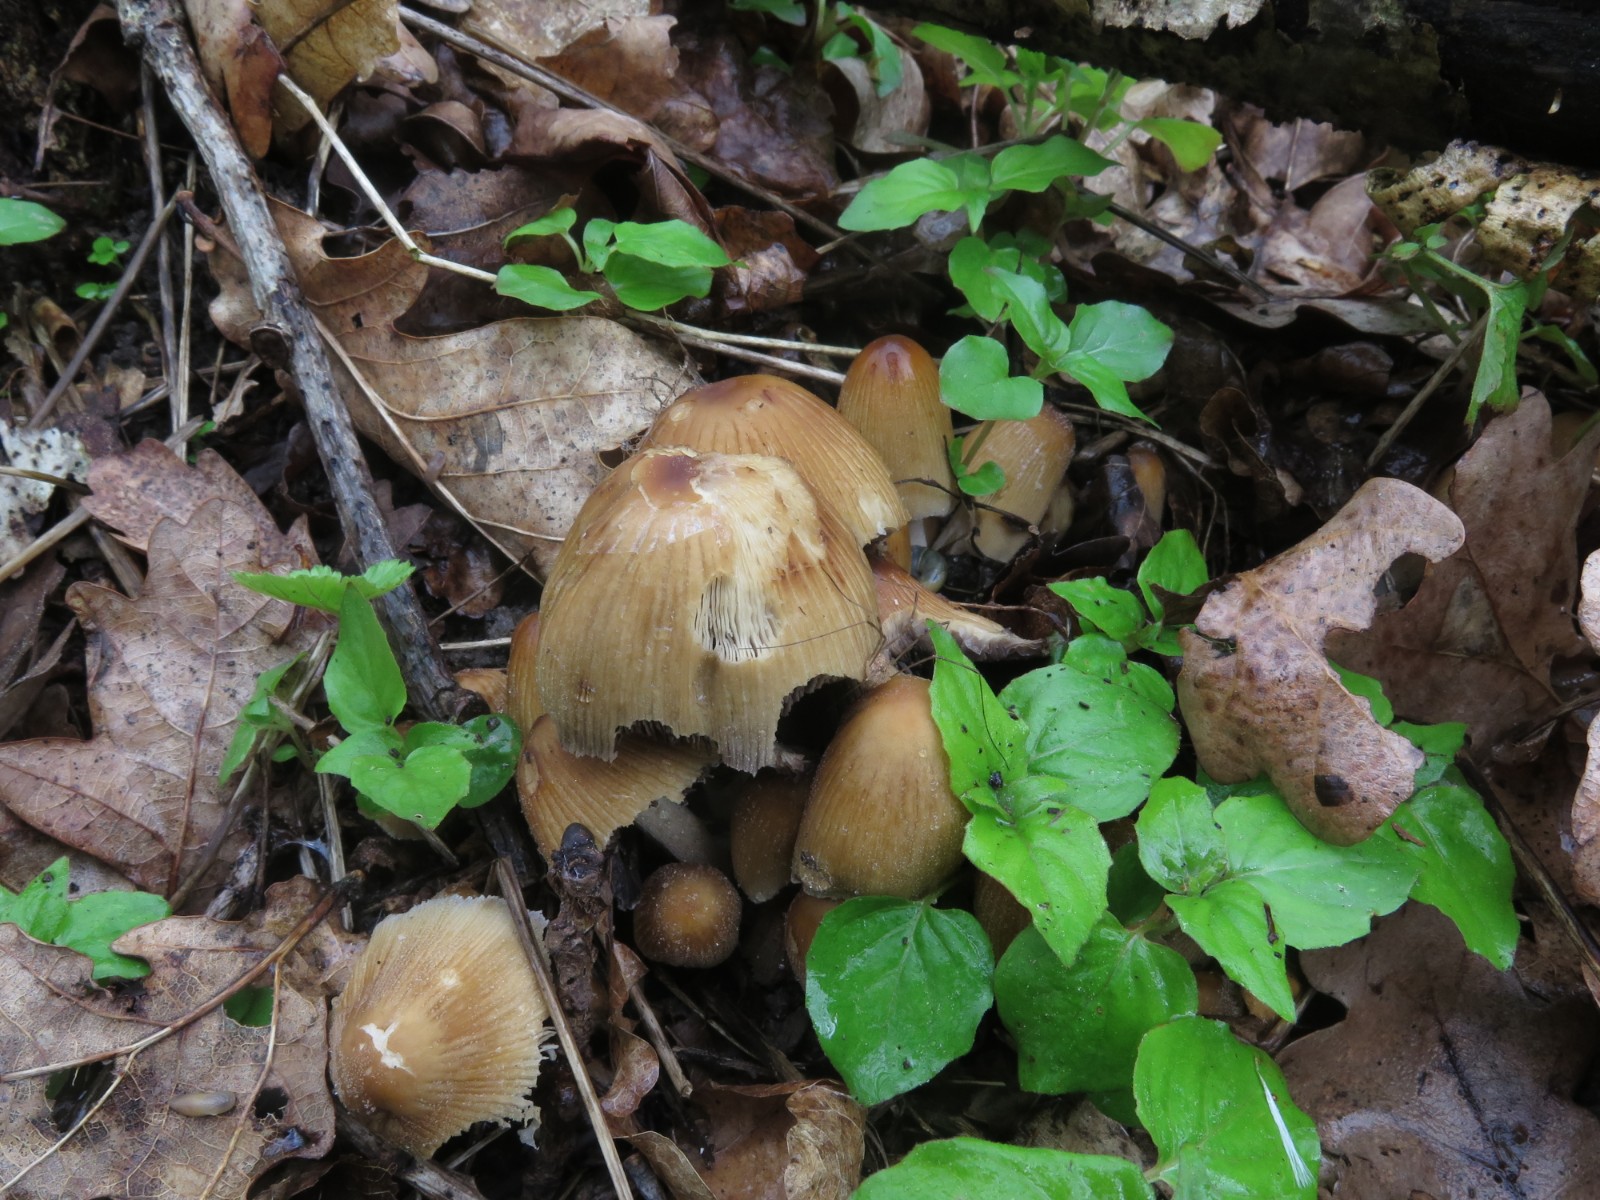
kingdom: Fungi
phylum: Basidiomycota
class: Agaricomycetes
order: Agaricales
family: Psathyrellaceae
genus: Coprinellus
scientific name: Coprinellus micaceus
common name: glimmer-blækhat
